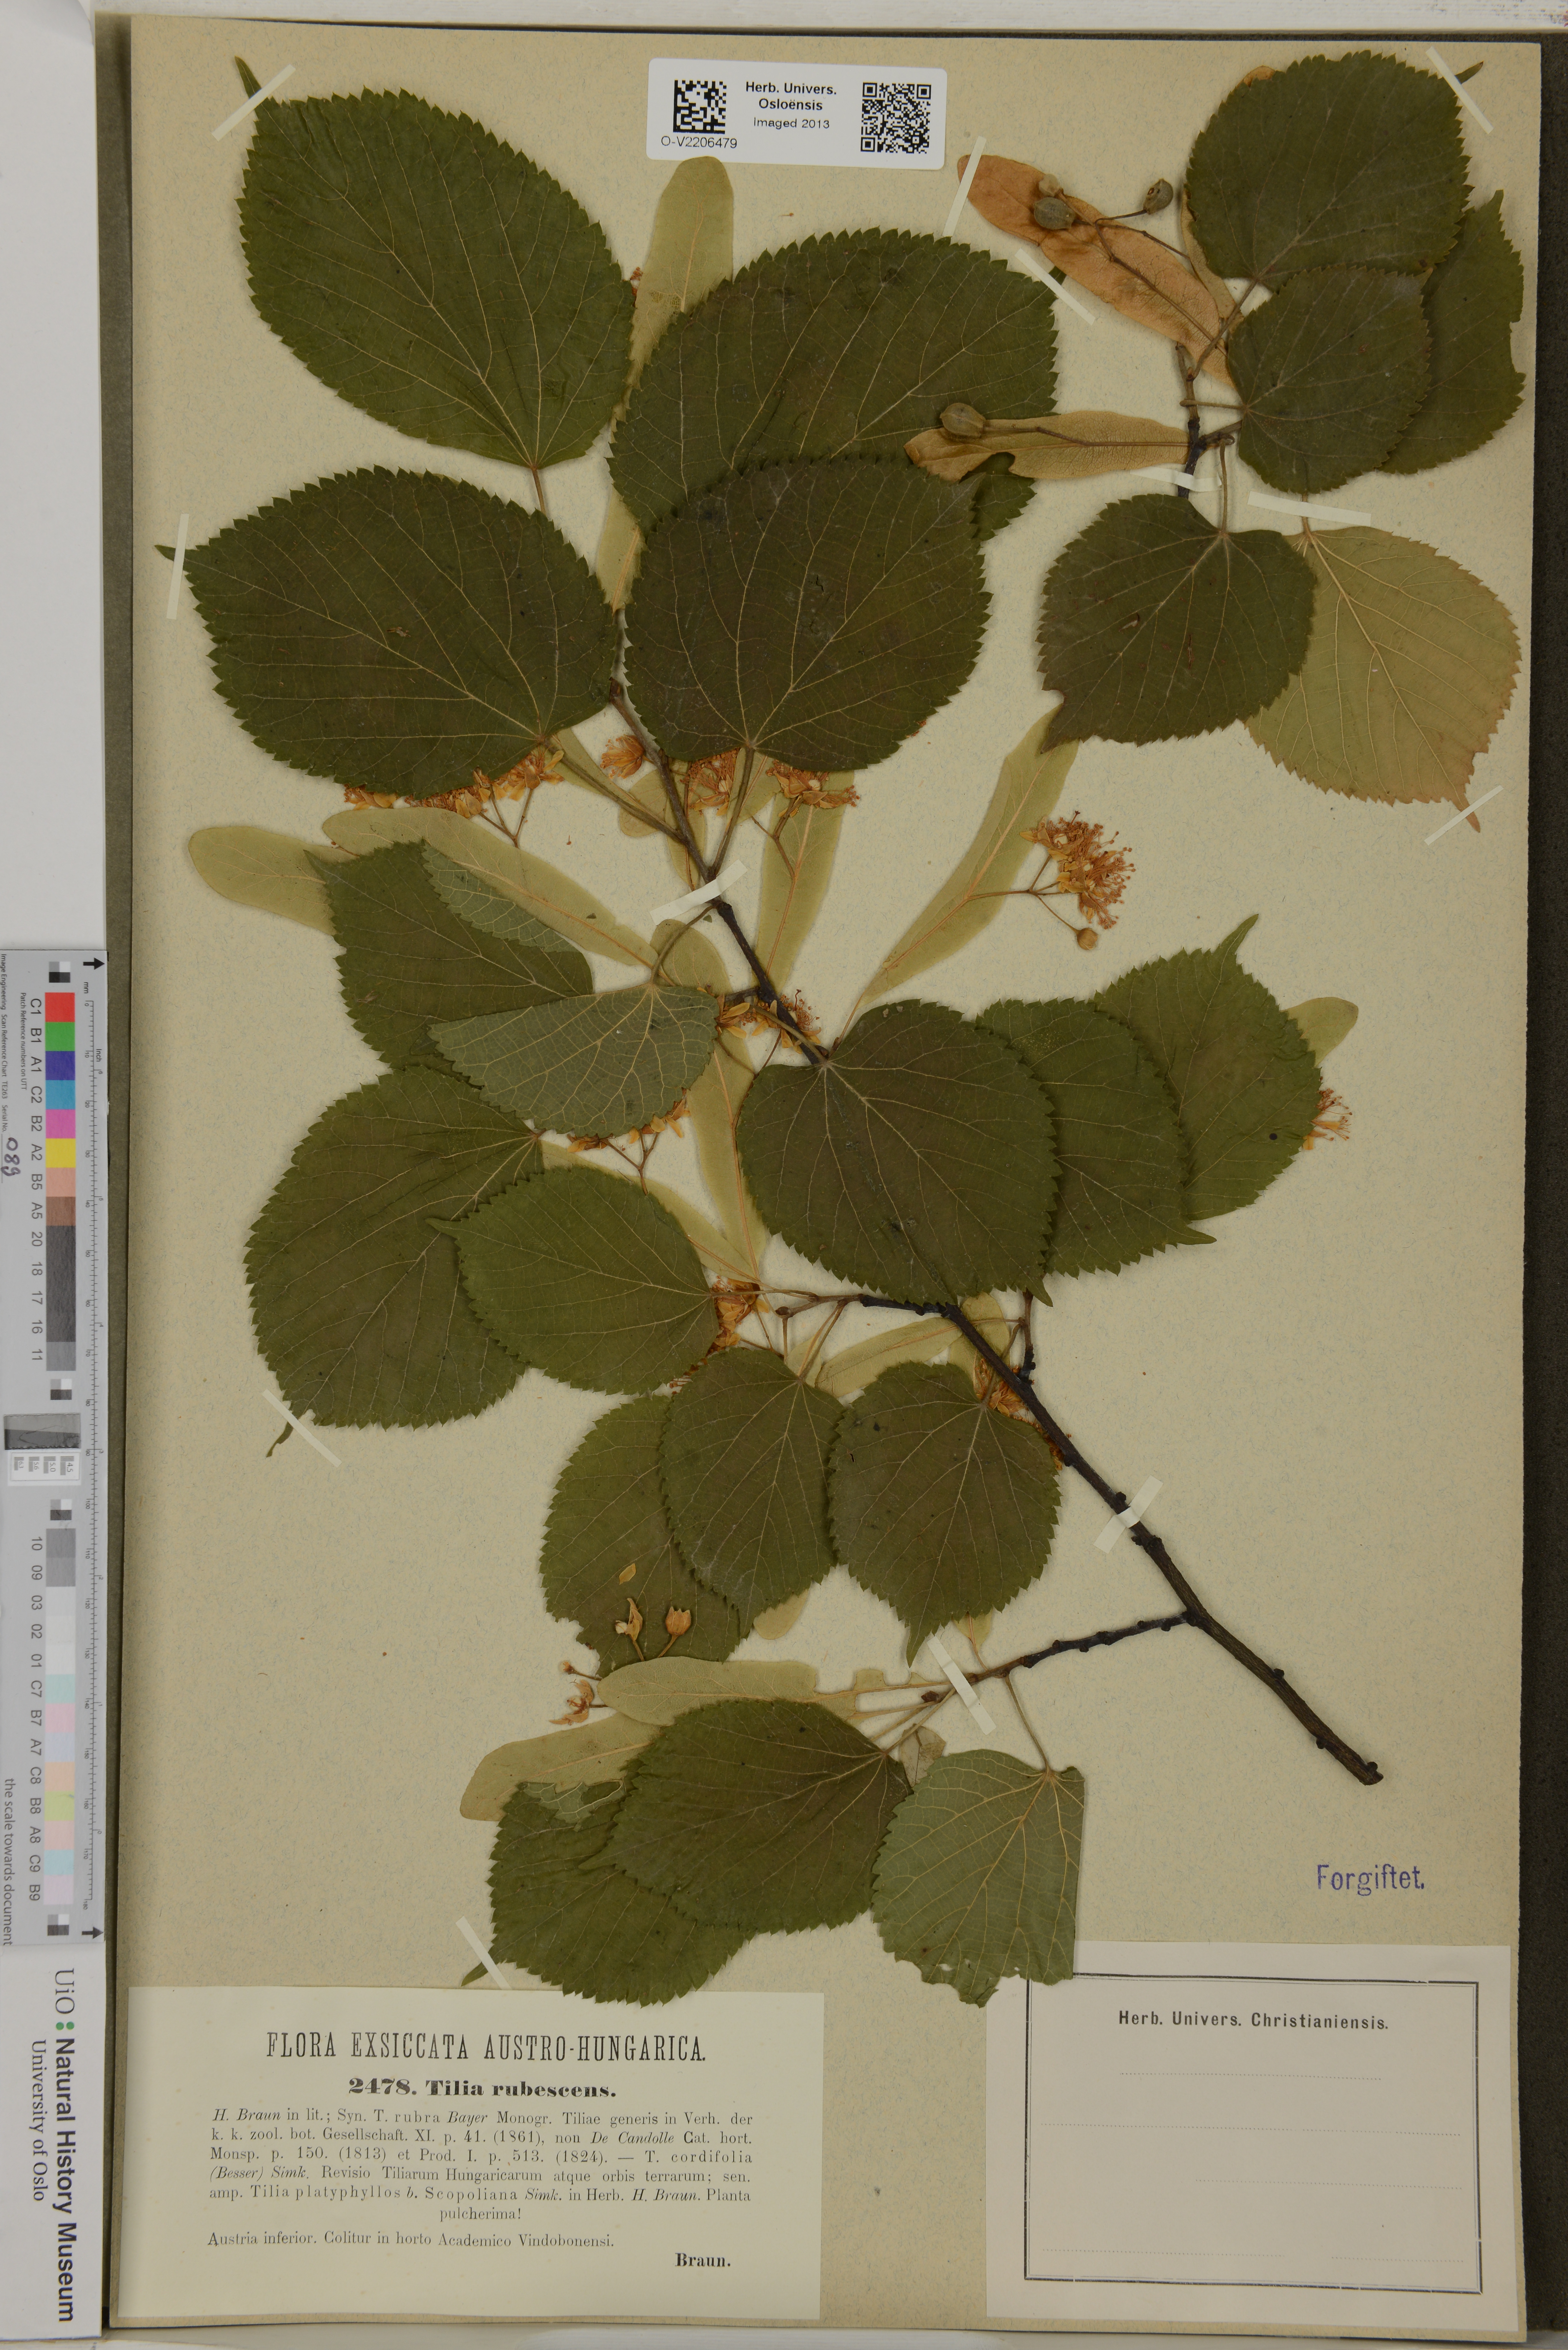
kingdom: Plantae
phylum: Tracheophyta
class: Magnoliopsida
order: Malvales
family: Malvaceae
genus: Tilia
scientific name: Tilia rubescens
